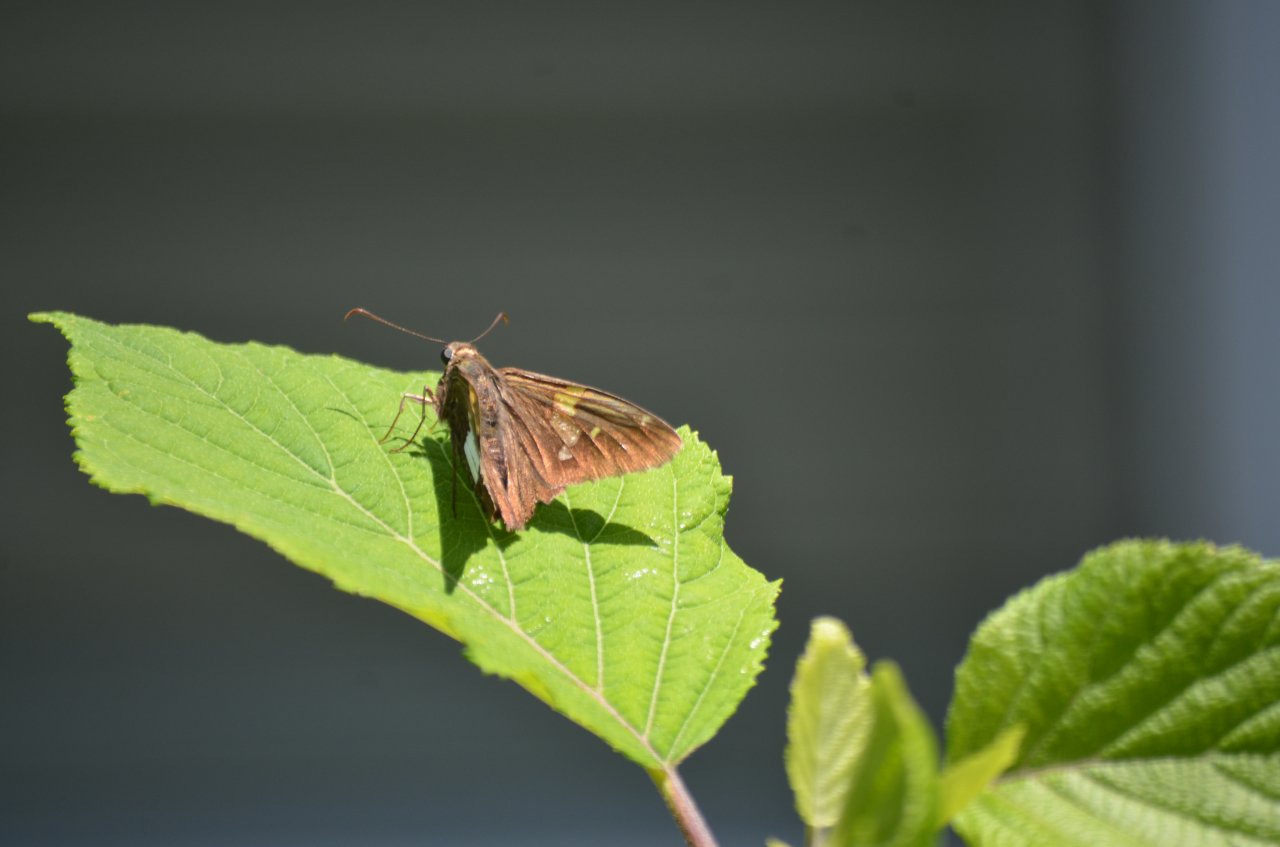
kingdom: Animalia
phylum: Arthropoda
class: Insecta
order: Lepidoptera
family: Hesperiidae
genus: Epargyreus
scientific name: Epargyreus clarus
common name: Silver-spotted Skipper
